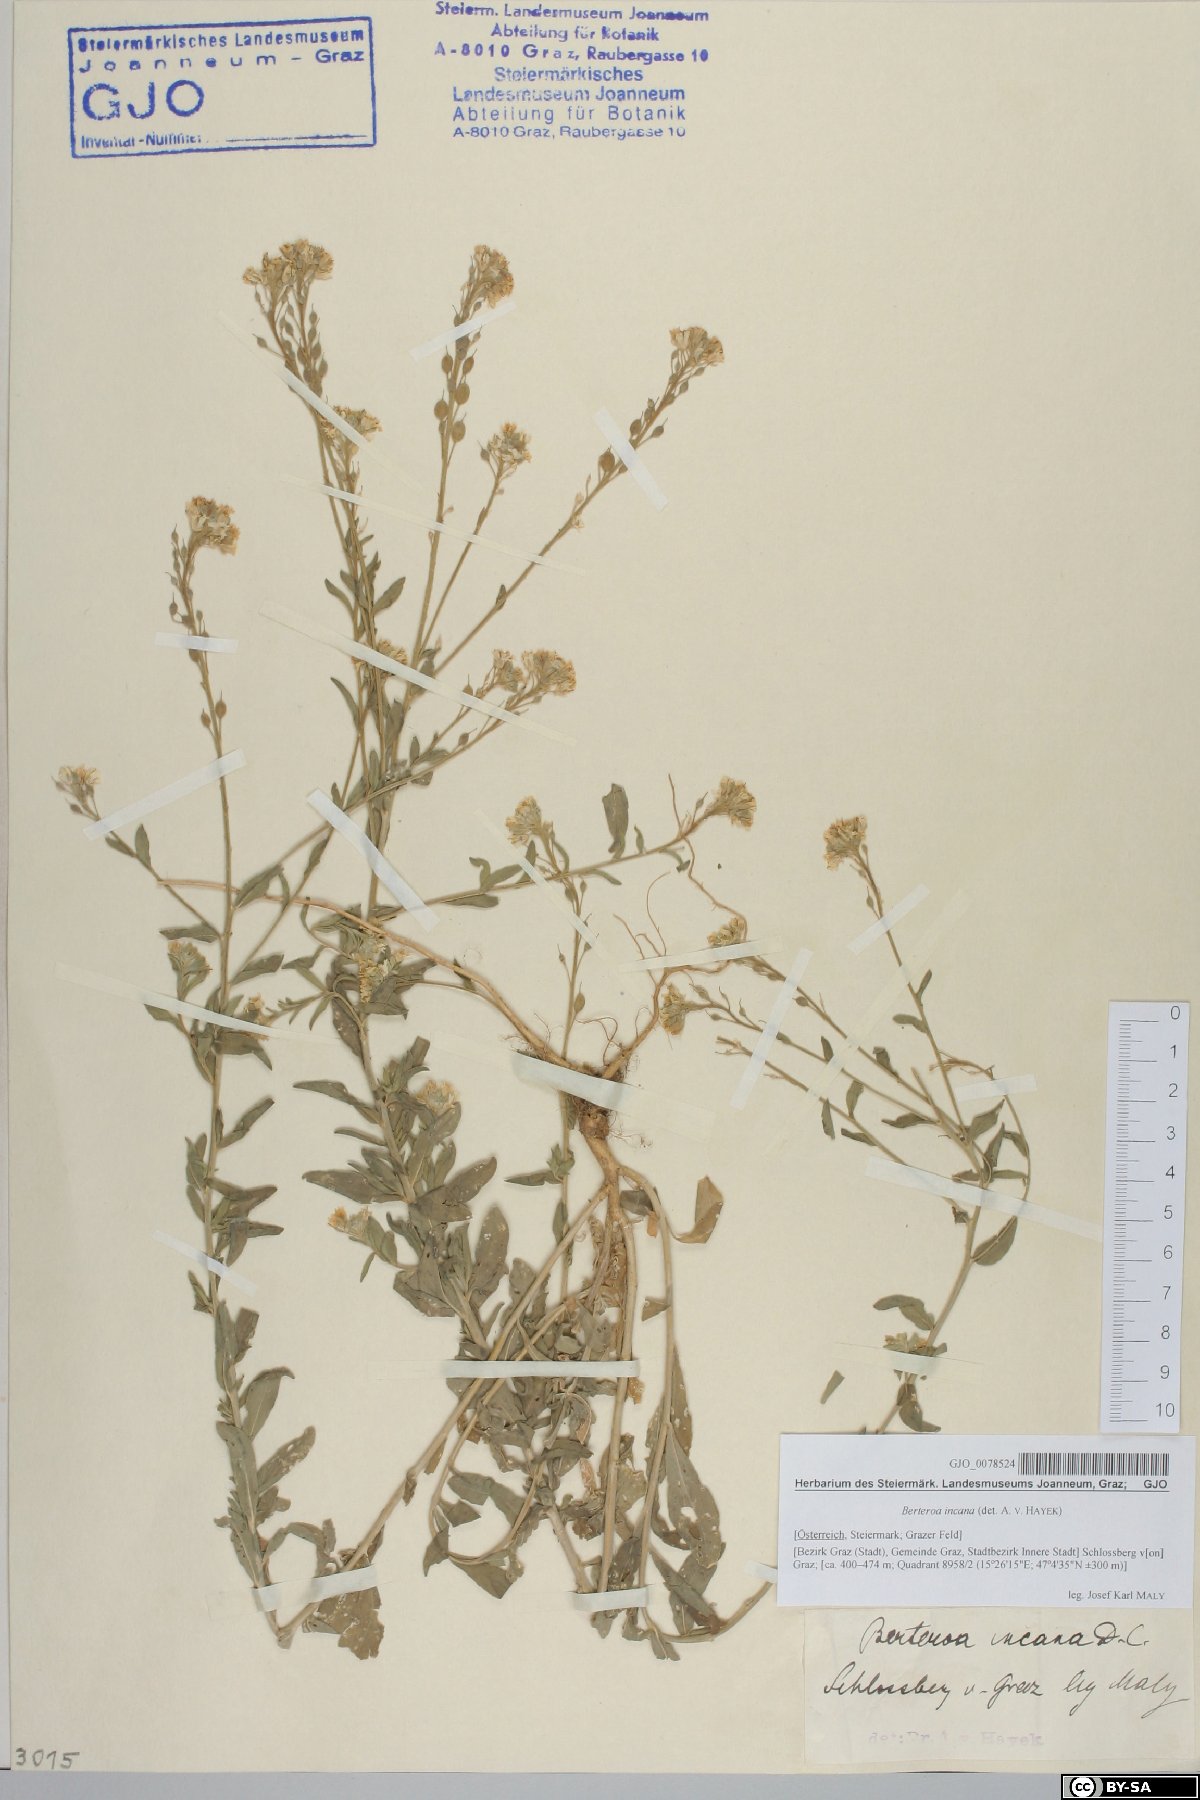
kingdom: Plantae
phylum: Tracheophyta
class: Magnoliopsida
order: Brassicales
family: Brassicaceae
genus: Berteroa
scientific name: Berteroa incana
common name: Hoary alison
